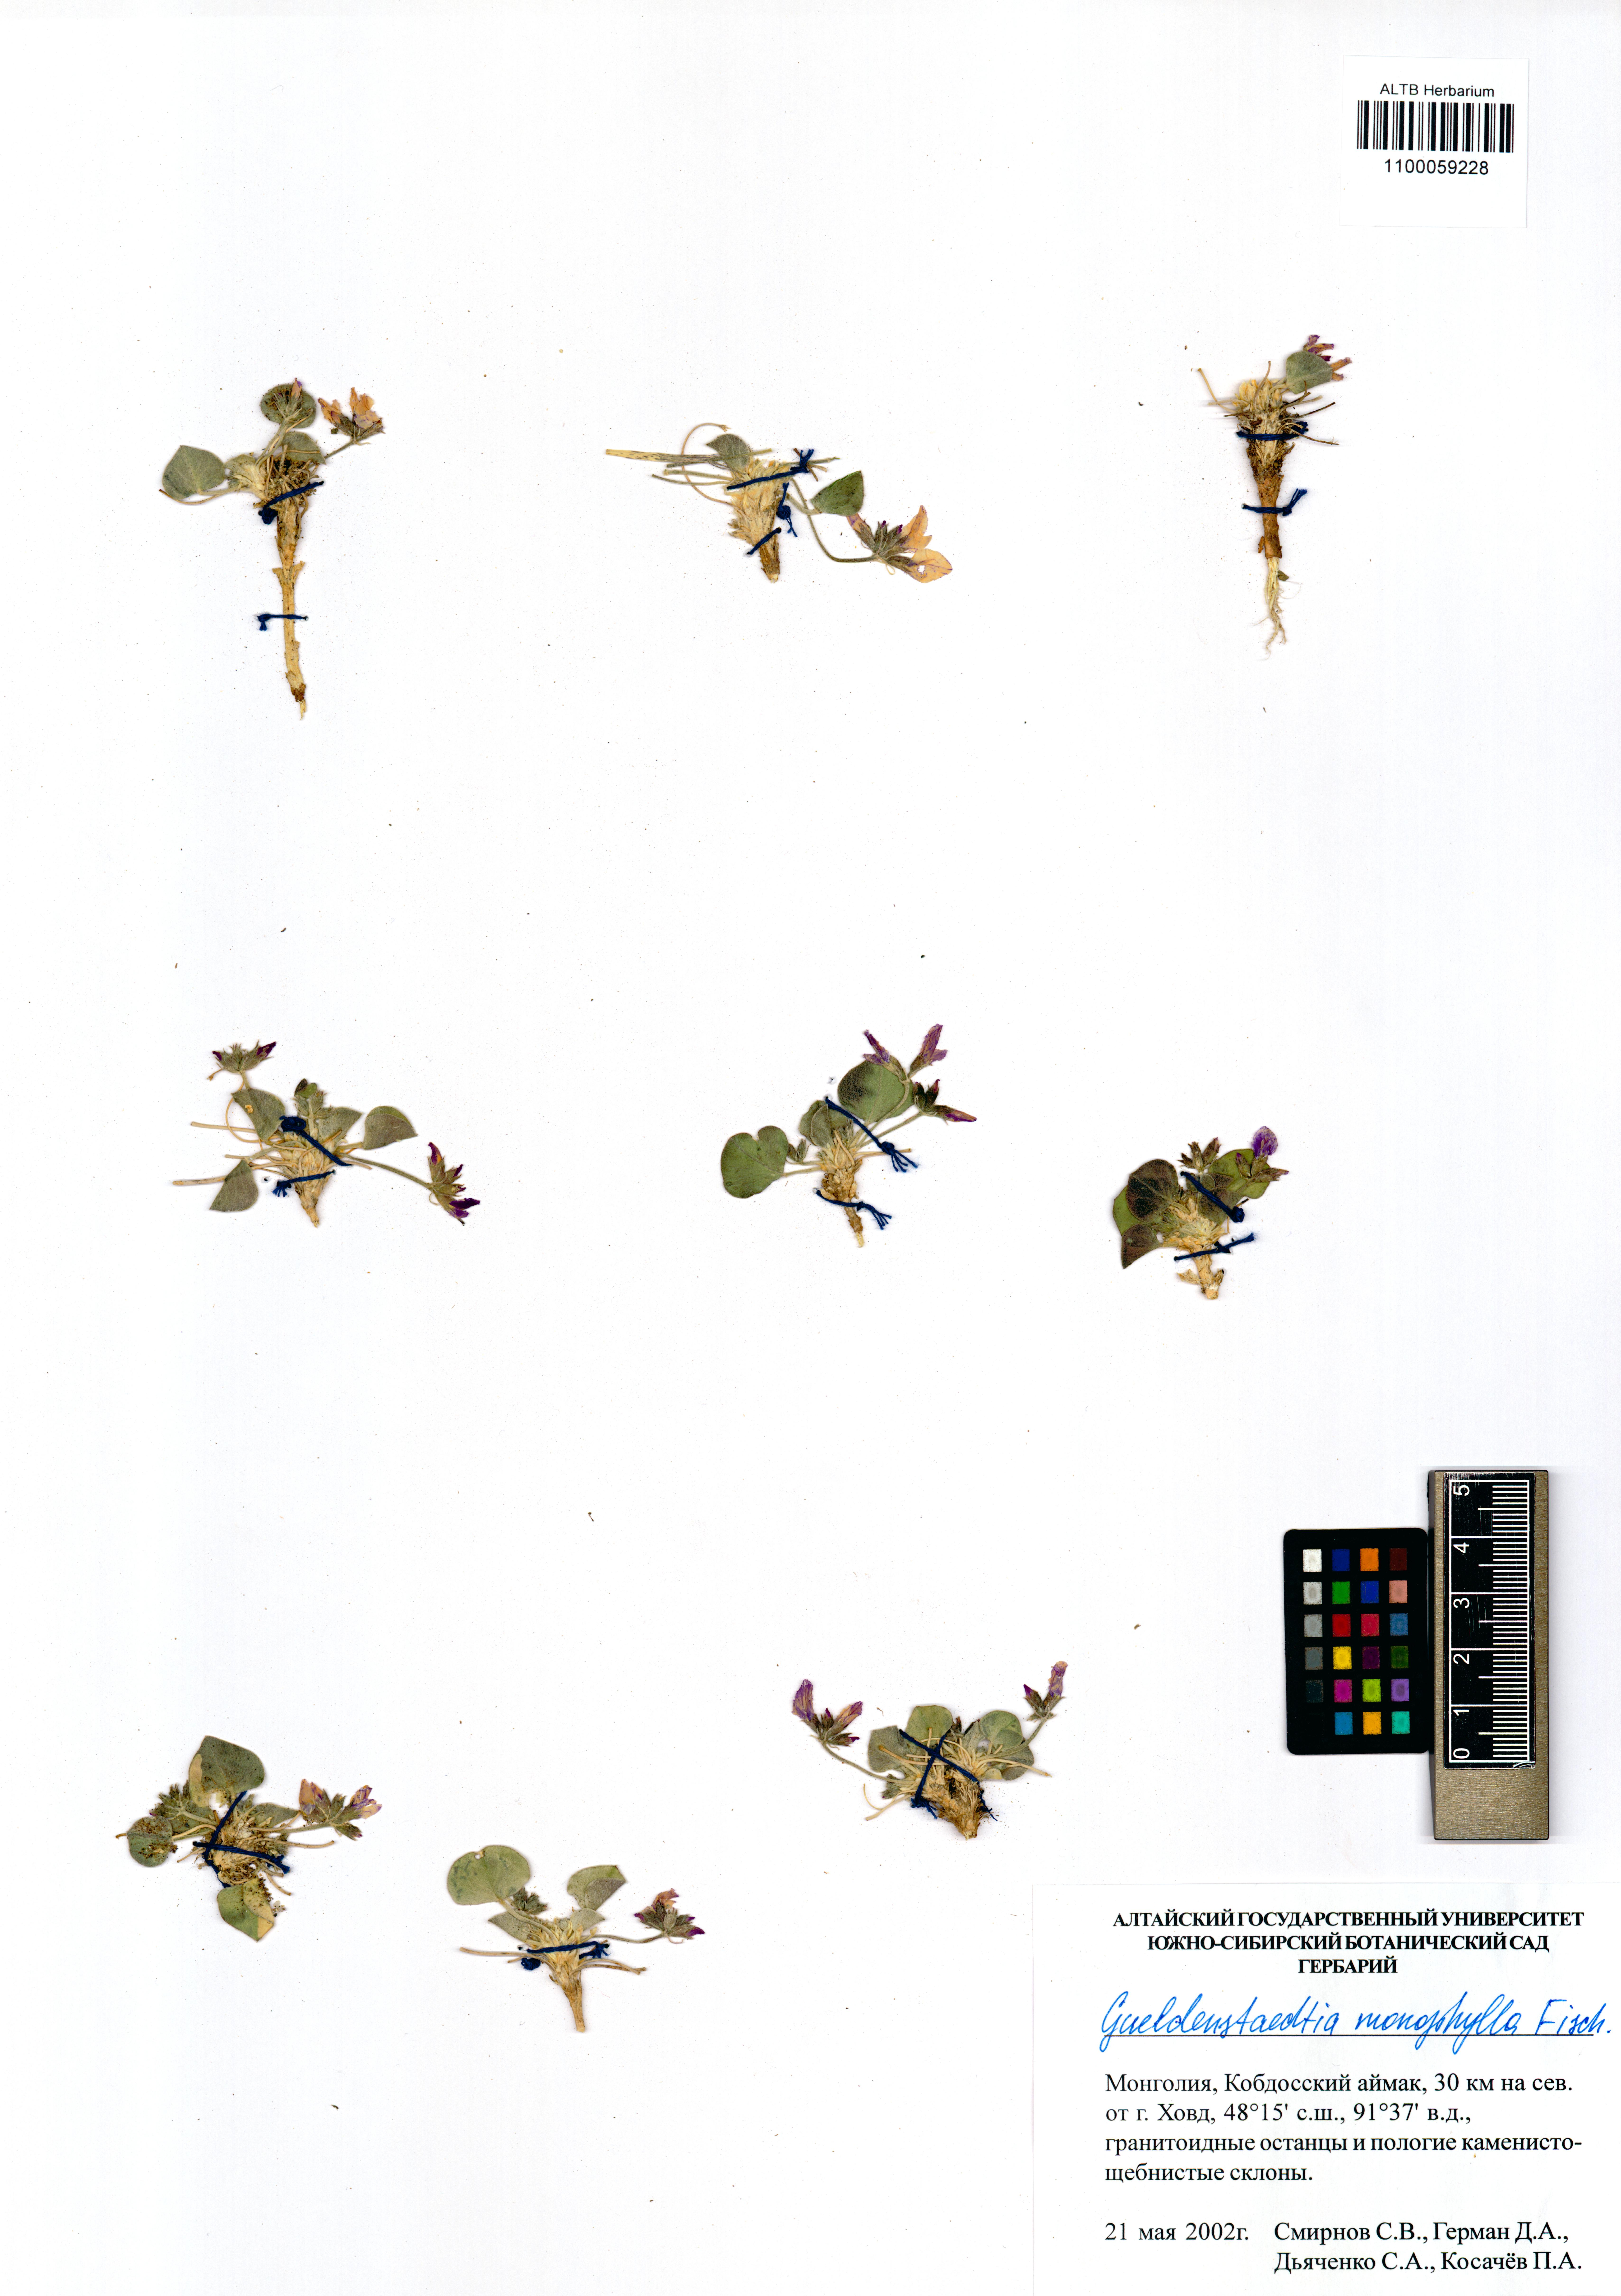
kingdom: Plantae
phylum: Tracheophyta
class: Magnoliopsida
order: Fabales
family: Fabaceae
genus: Gueldenstaedtia
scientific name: Gueldenstaedtia monophylla
